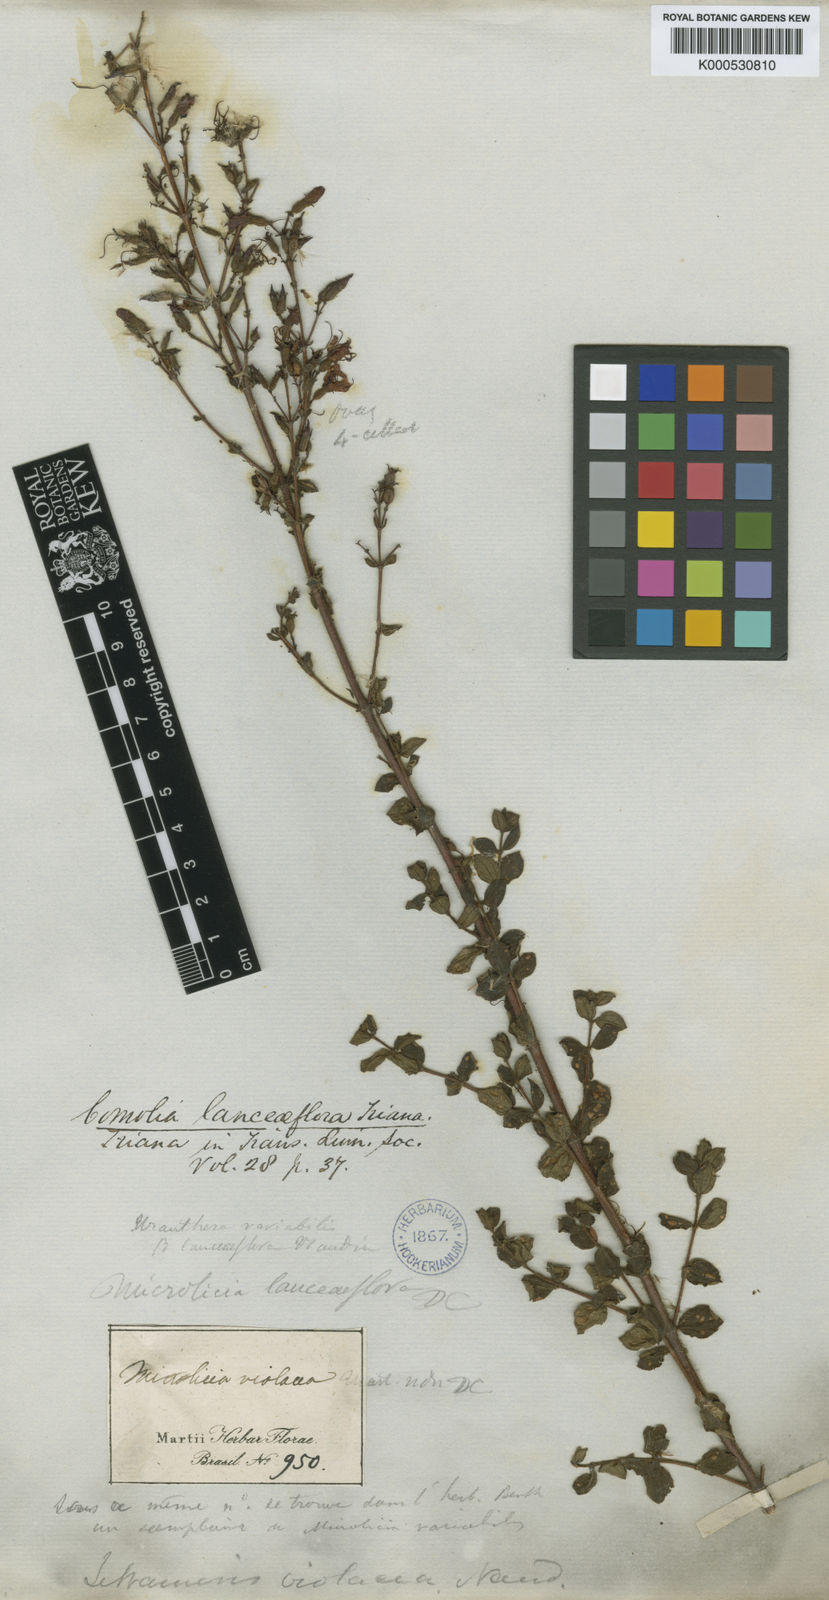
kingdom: Plantae
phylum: Tracheophyta
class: Magnoliopsida
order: Myrtales
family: Melastomataceae
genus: Fritzschia
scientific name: Fritzschia lanceiflora
